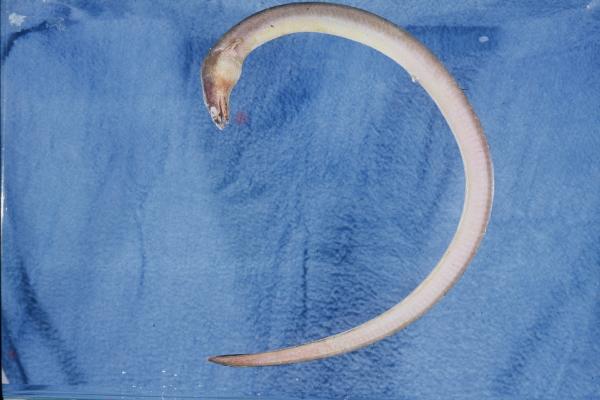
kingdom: Animalia
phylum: Chordata
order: Anguilliformes
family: Ophichthidae
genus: Pisodonophis
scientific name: Pisodonophis boro
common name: Rice-paddy eel
